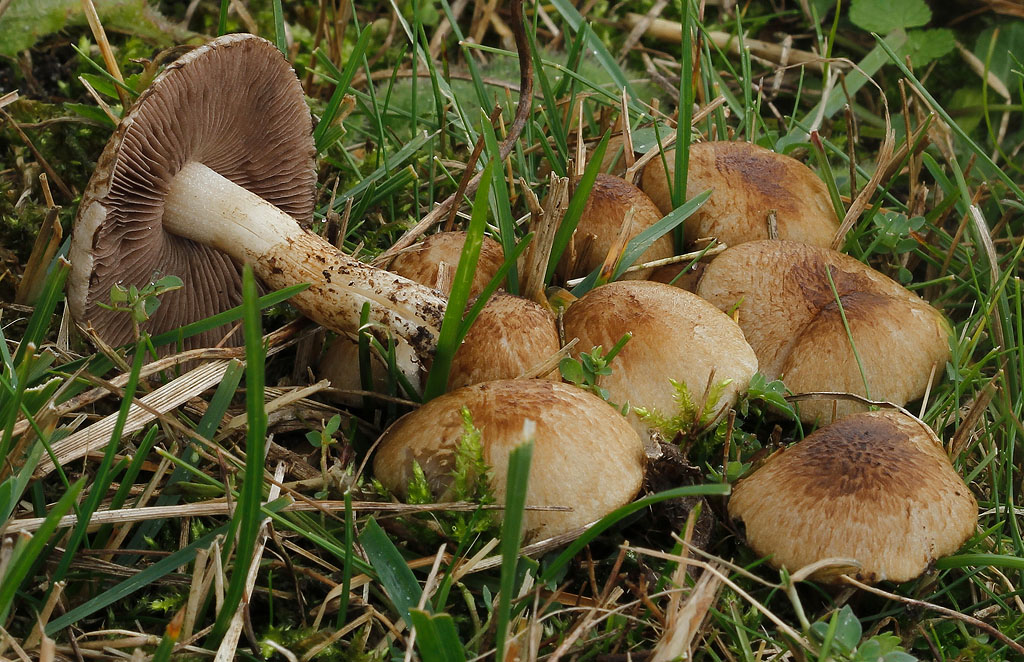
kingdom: Fungi
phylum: Basidiomycota
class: Agaricomycetes
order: Agaricales
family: Psathyrellaceae
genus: Cystoagaricus
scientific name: Cystoagaricus populinus
